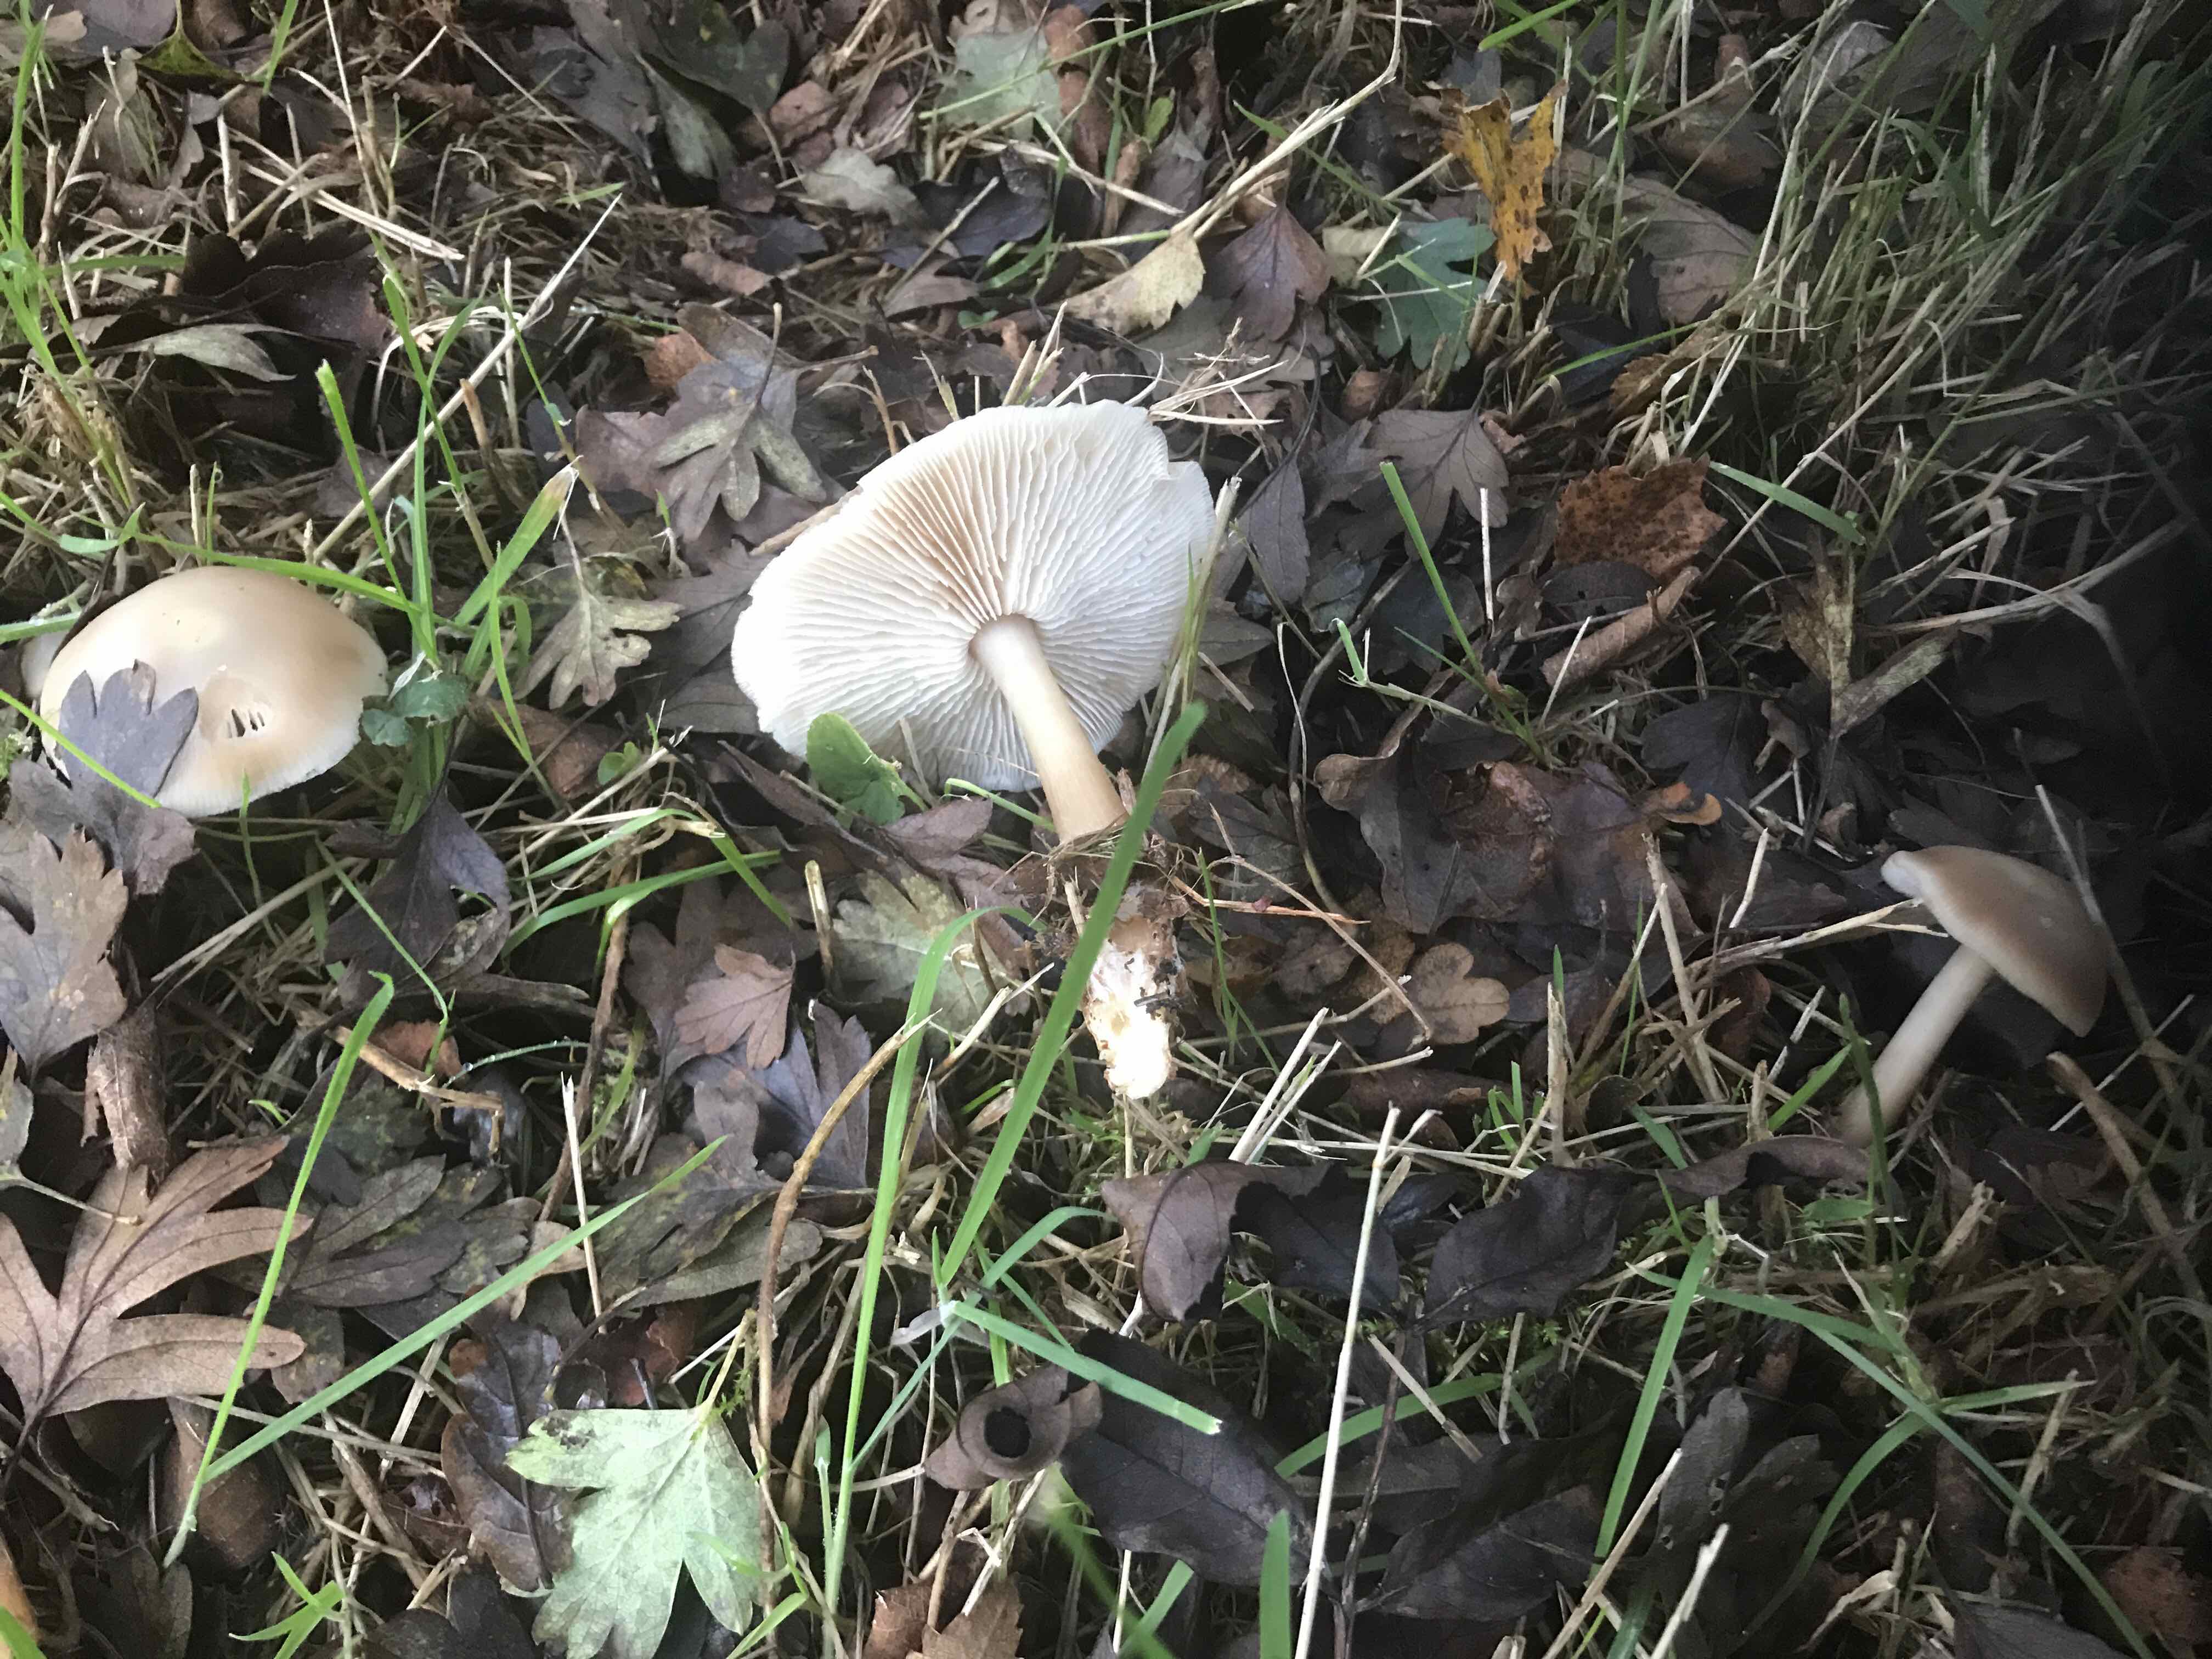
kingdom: Fungi
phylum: Basidiomycota
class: Agaricomycetes
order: Agaricales
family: Omphalotaceae
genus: Rhodocollybia
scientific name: Rhodocollybia asema
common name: horngrå fladhat
